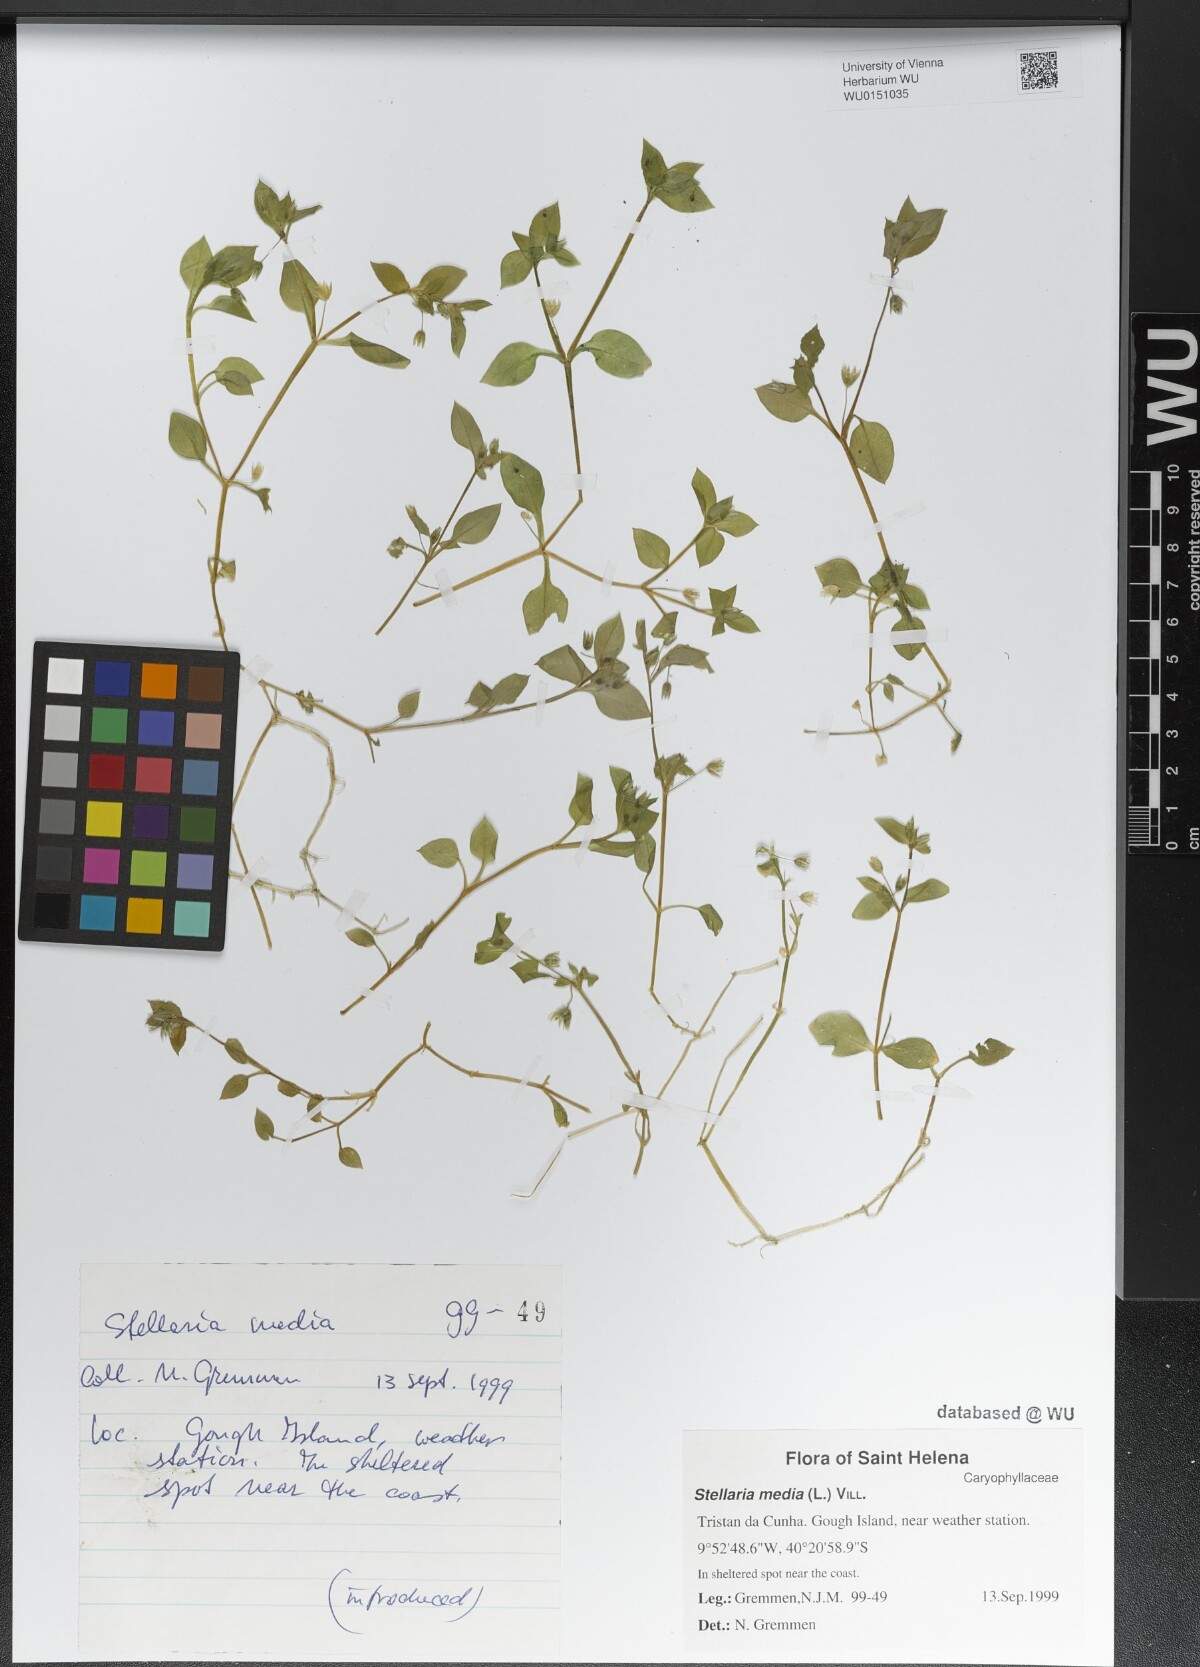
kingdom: Plantae
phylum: Tracheophyta
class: Magnoliopsida
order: Caryophyllales
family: Caryophyllaceae
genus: Stellaria
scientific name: Stellaria media
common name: Common chickweed
